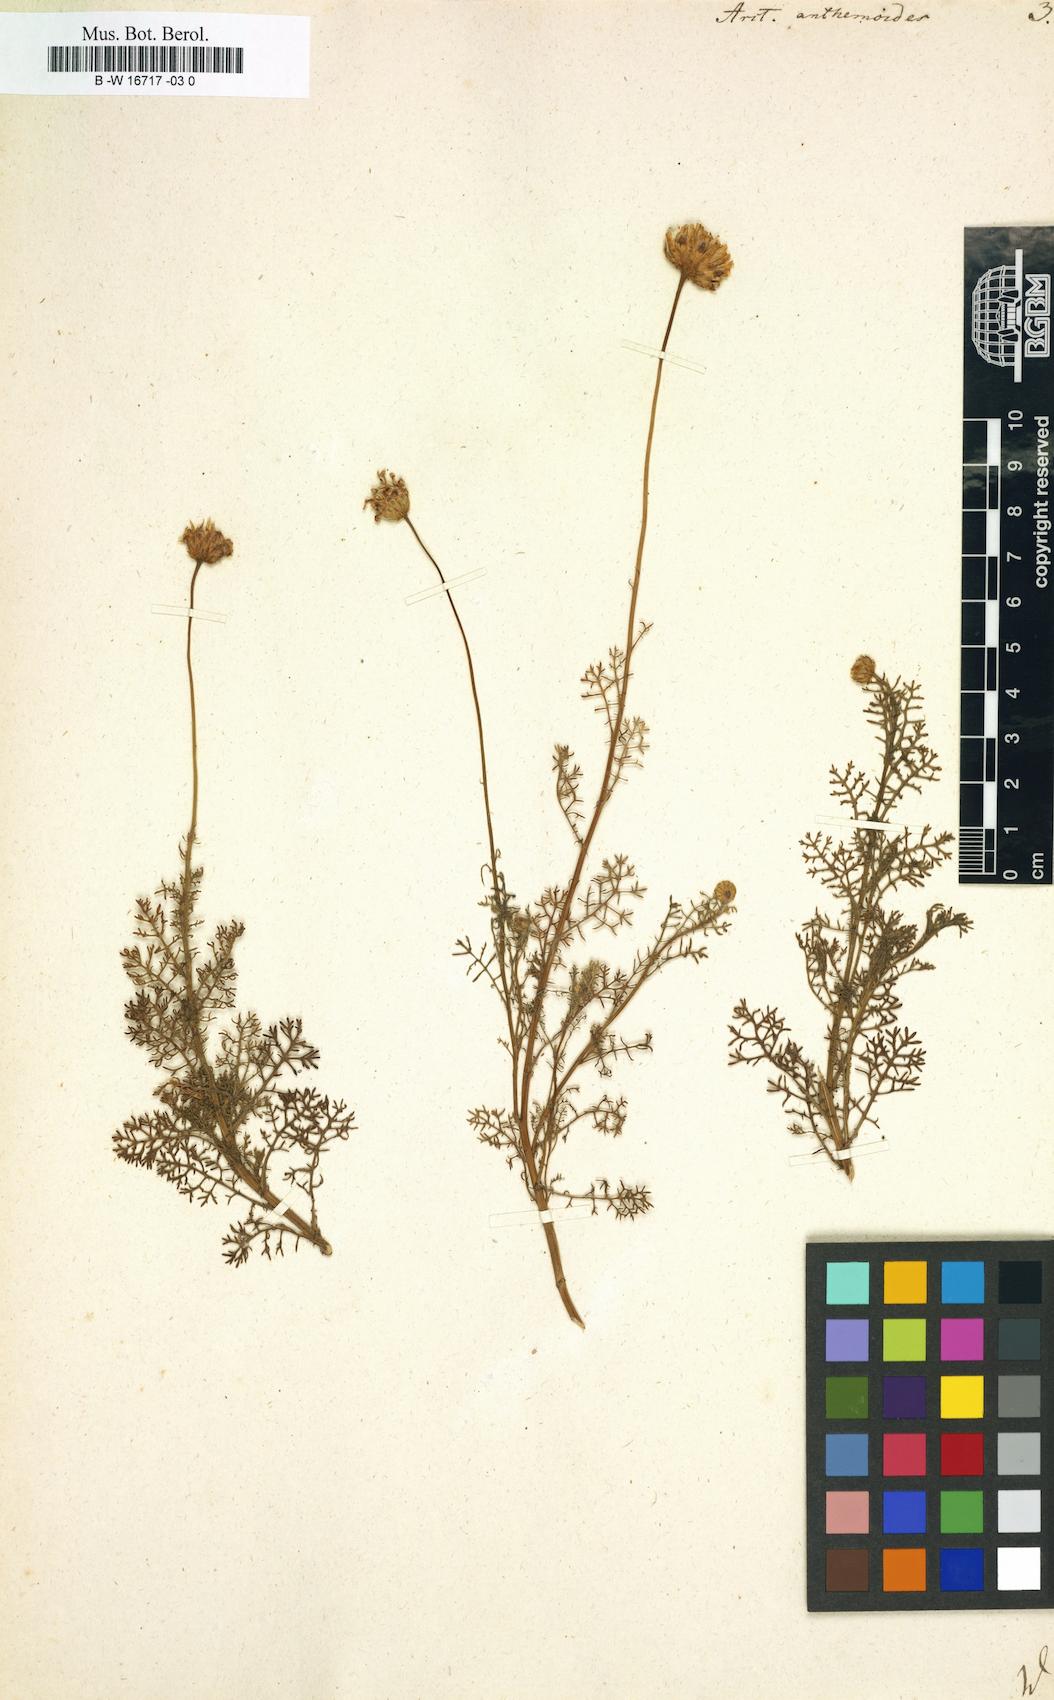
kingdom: Plantae
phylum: Tracheophyta
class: Magnoliopsida
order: Asterales
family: Asteraceae
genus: Ursinia
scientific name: Ursinia
